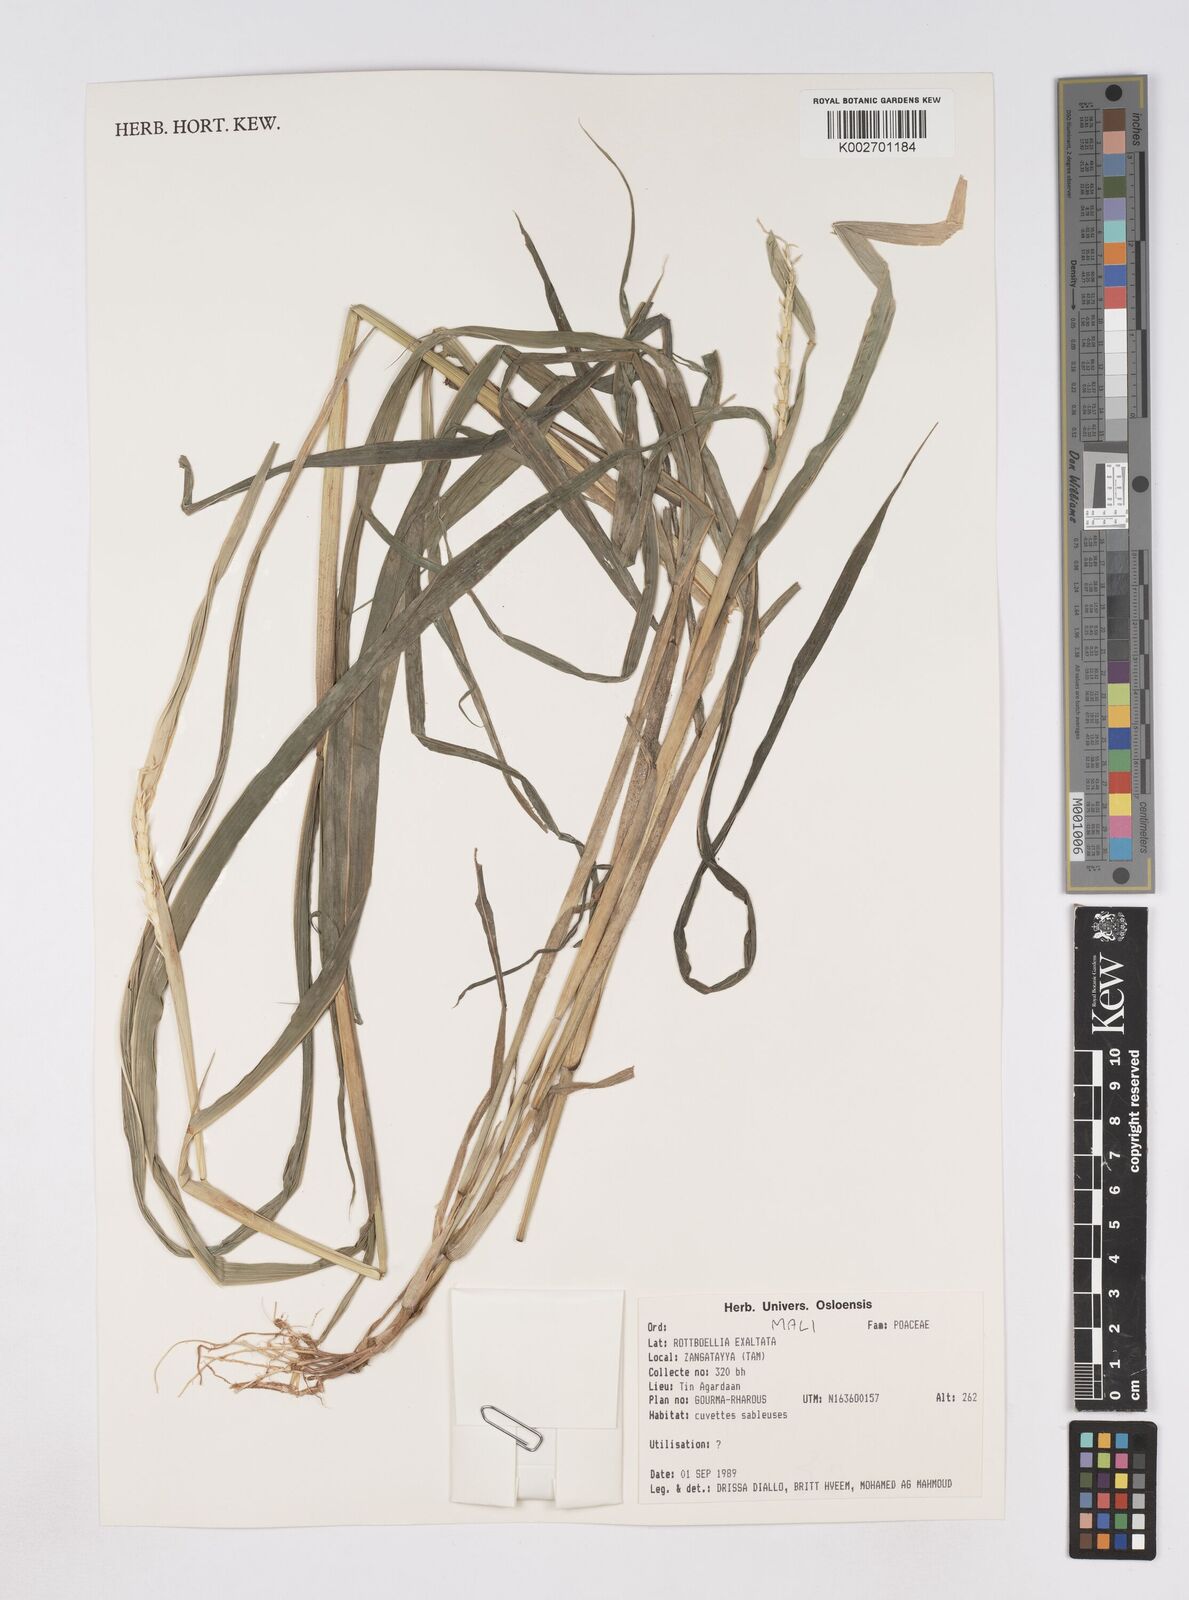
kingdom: Plantae
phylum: Tracheophyta
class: Liliopsida
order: Poales
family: Poaceae
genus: Rottboellia
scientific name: Rottboellia
